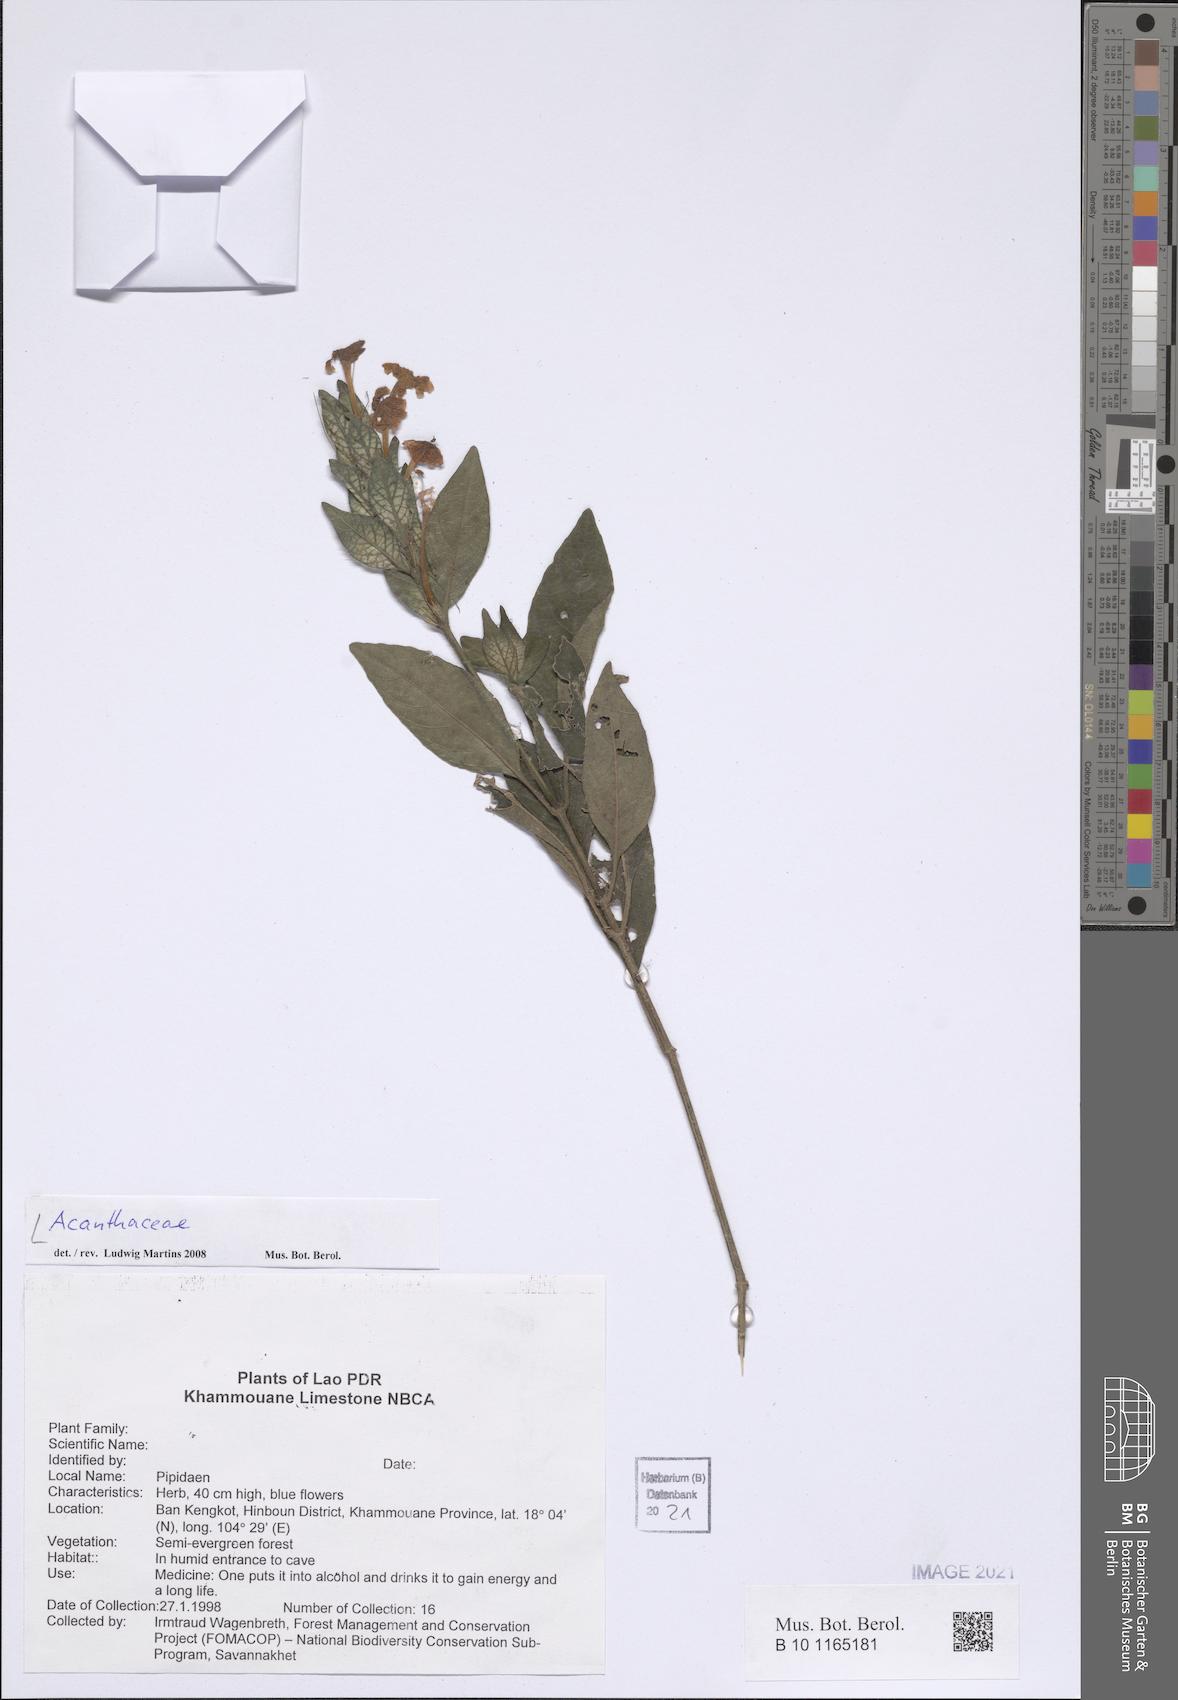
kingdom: Plantae
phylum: Tracheophyta
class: Magnoliopsida
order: Lamiales
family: Acanthaceae
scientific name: Acanthaceae
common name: Acanthaceae
